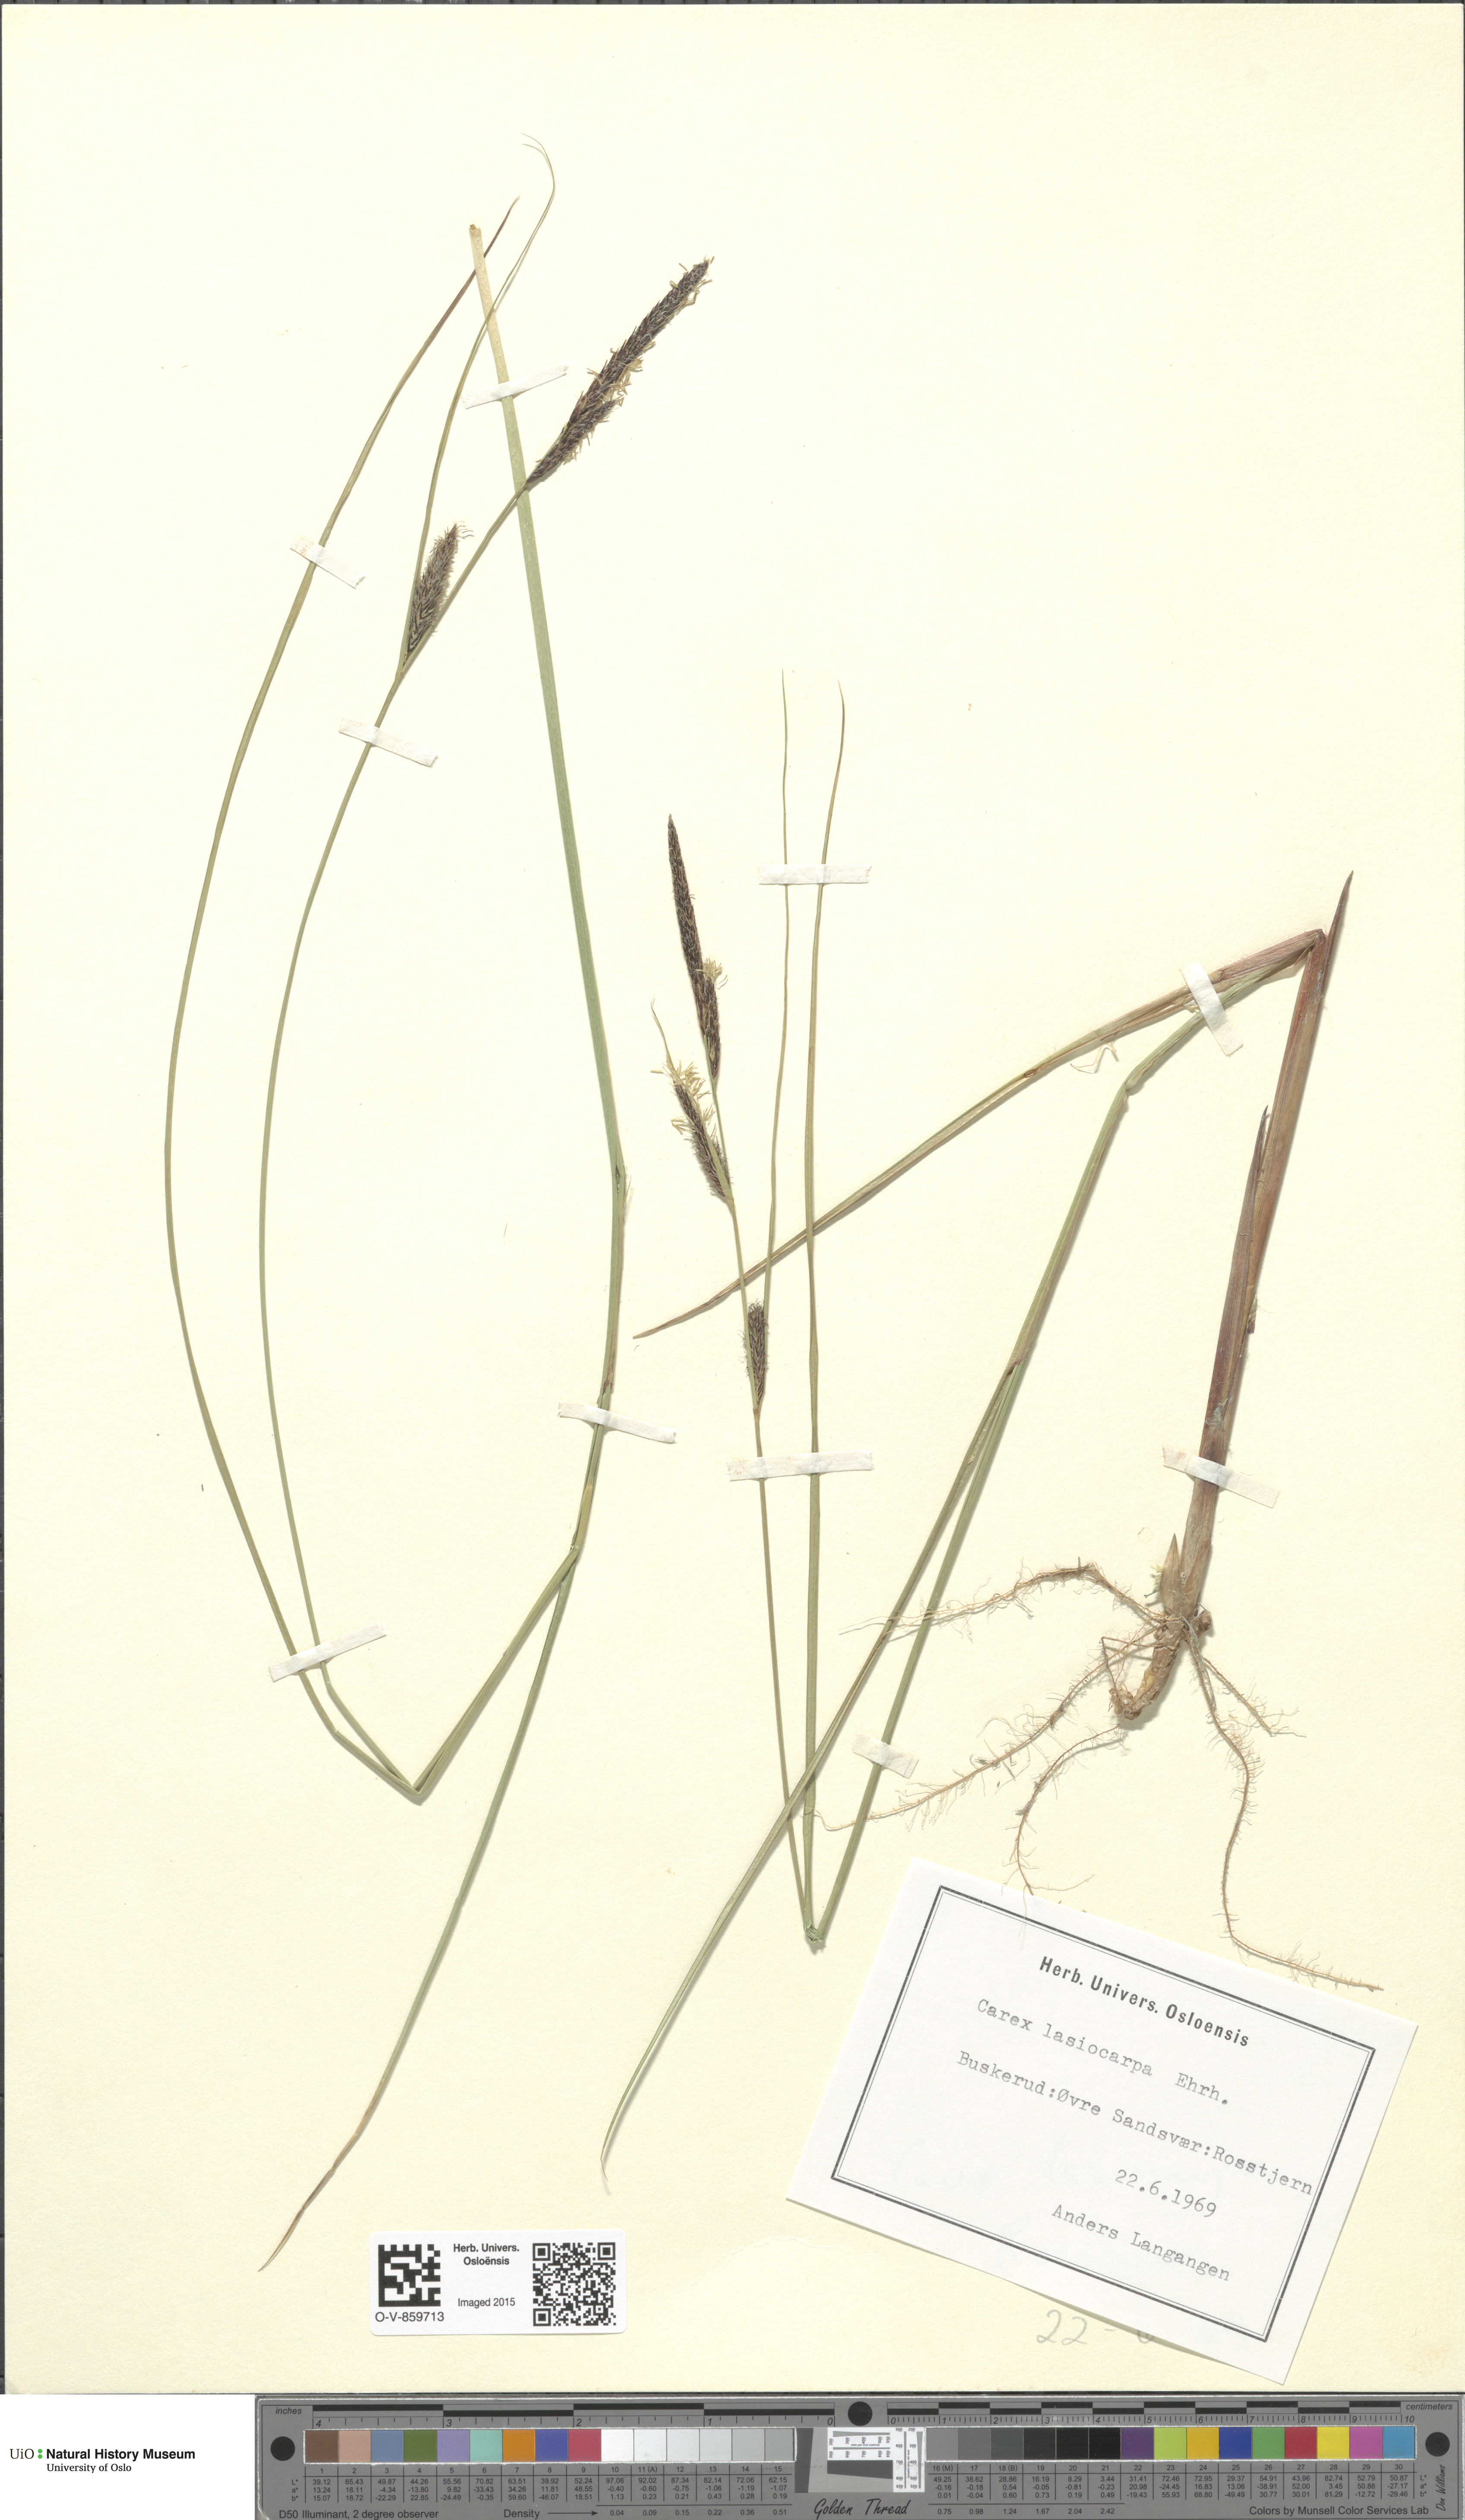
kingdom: Plantae
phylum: Tracheophyta
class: Liliopsida
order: Poales
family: Cyperaceae
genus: Carex
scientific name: Carex lasiocarpa
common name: Slender sedge
